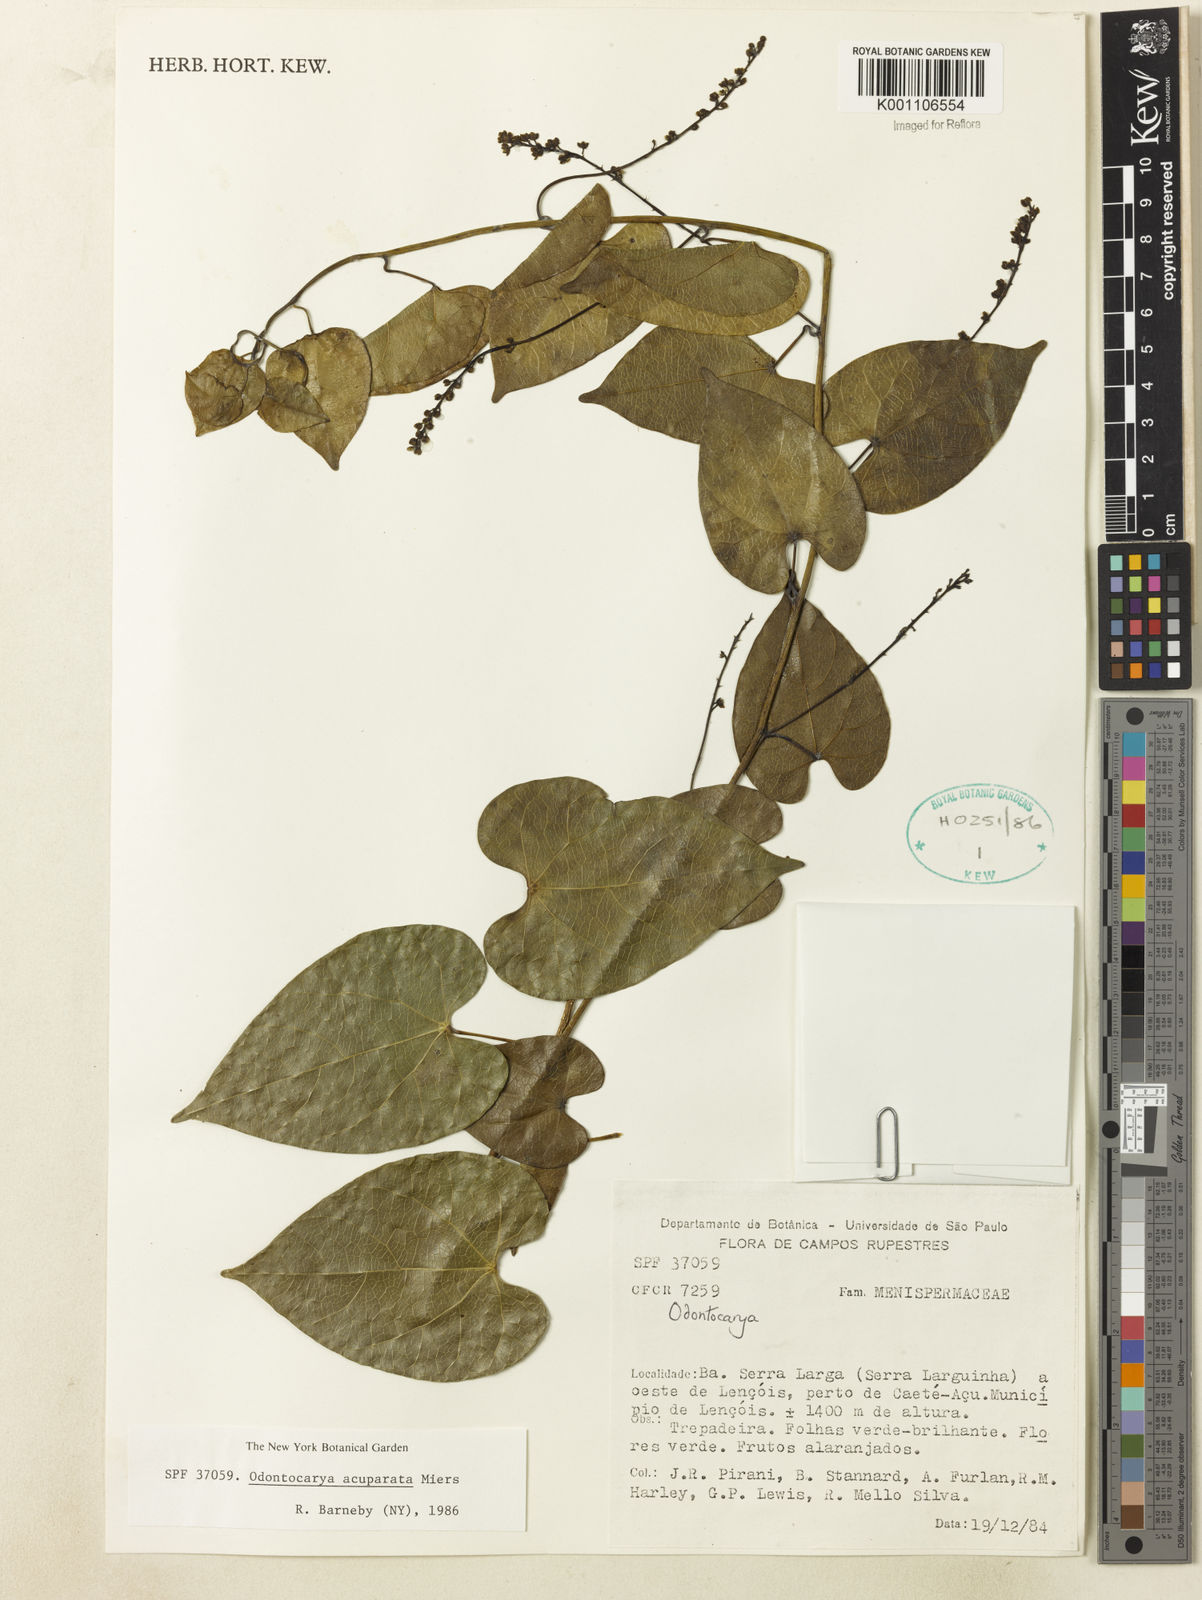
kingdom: Plantae
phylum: Tracheophyta
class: Magnoliopsida
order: Ranunculales
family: Menispermaceae
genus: Odontocarya
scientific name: Odontocarya acuparata
